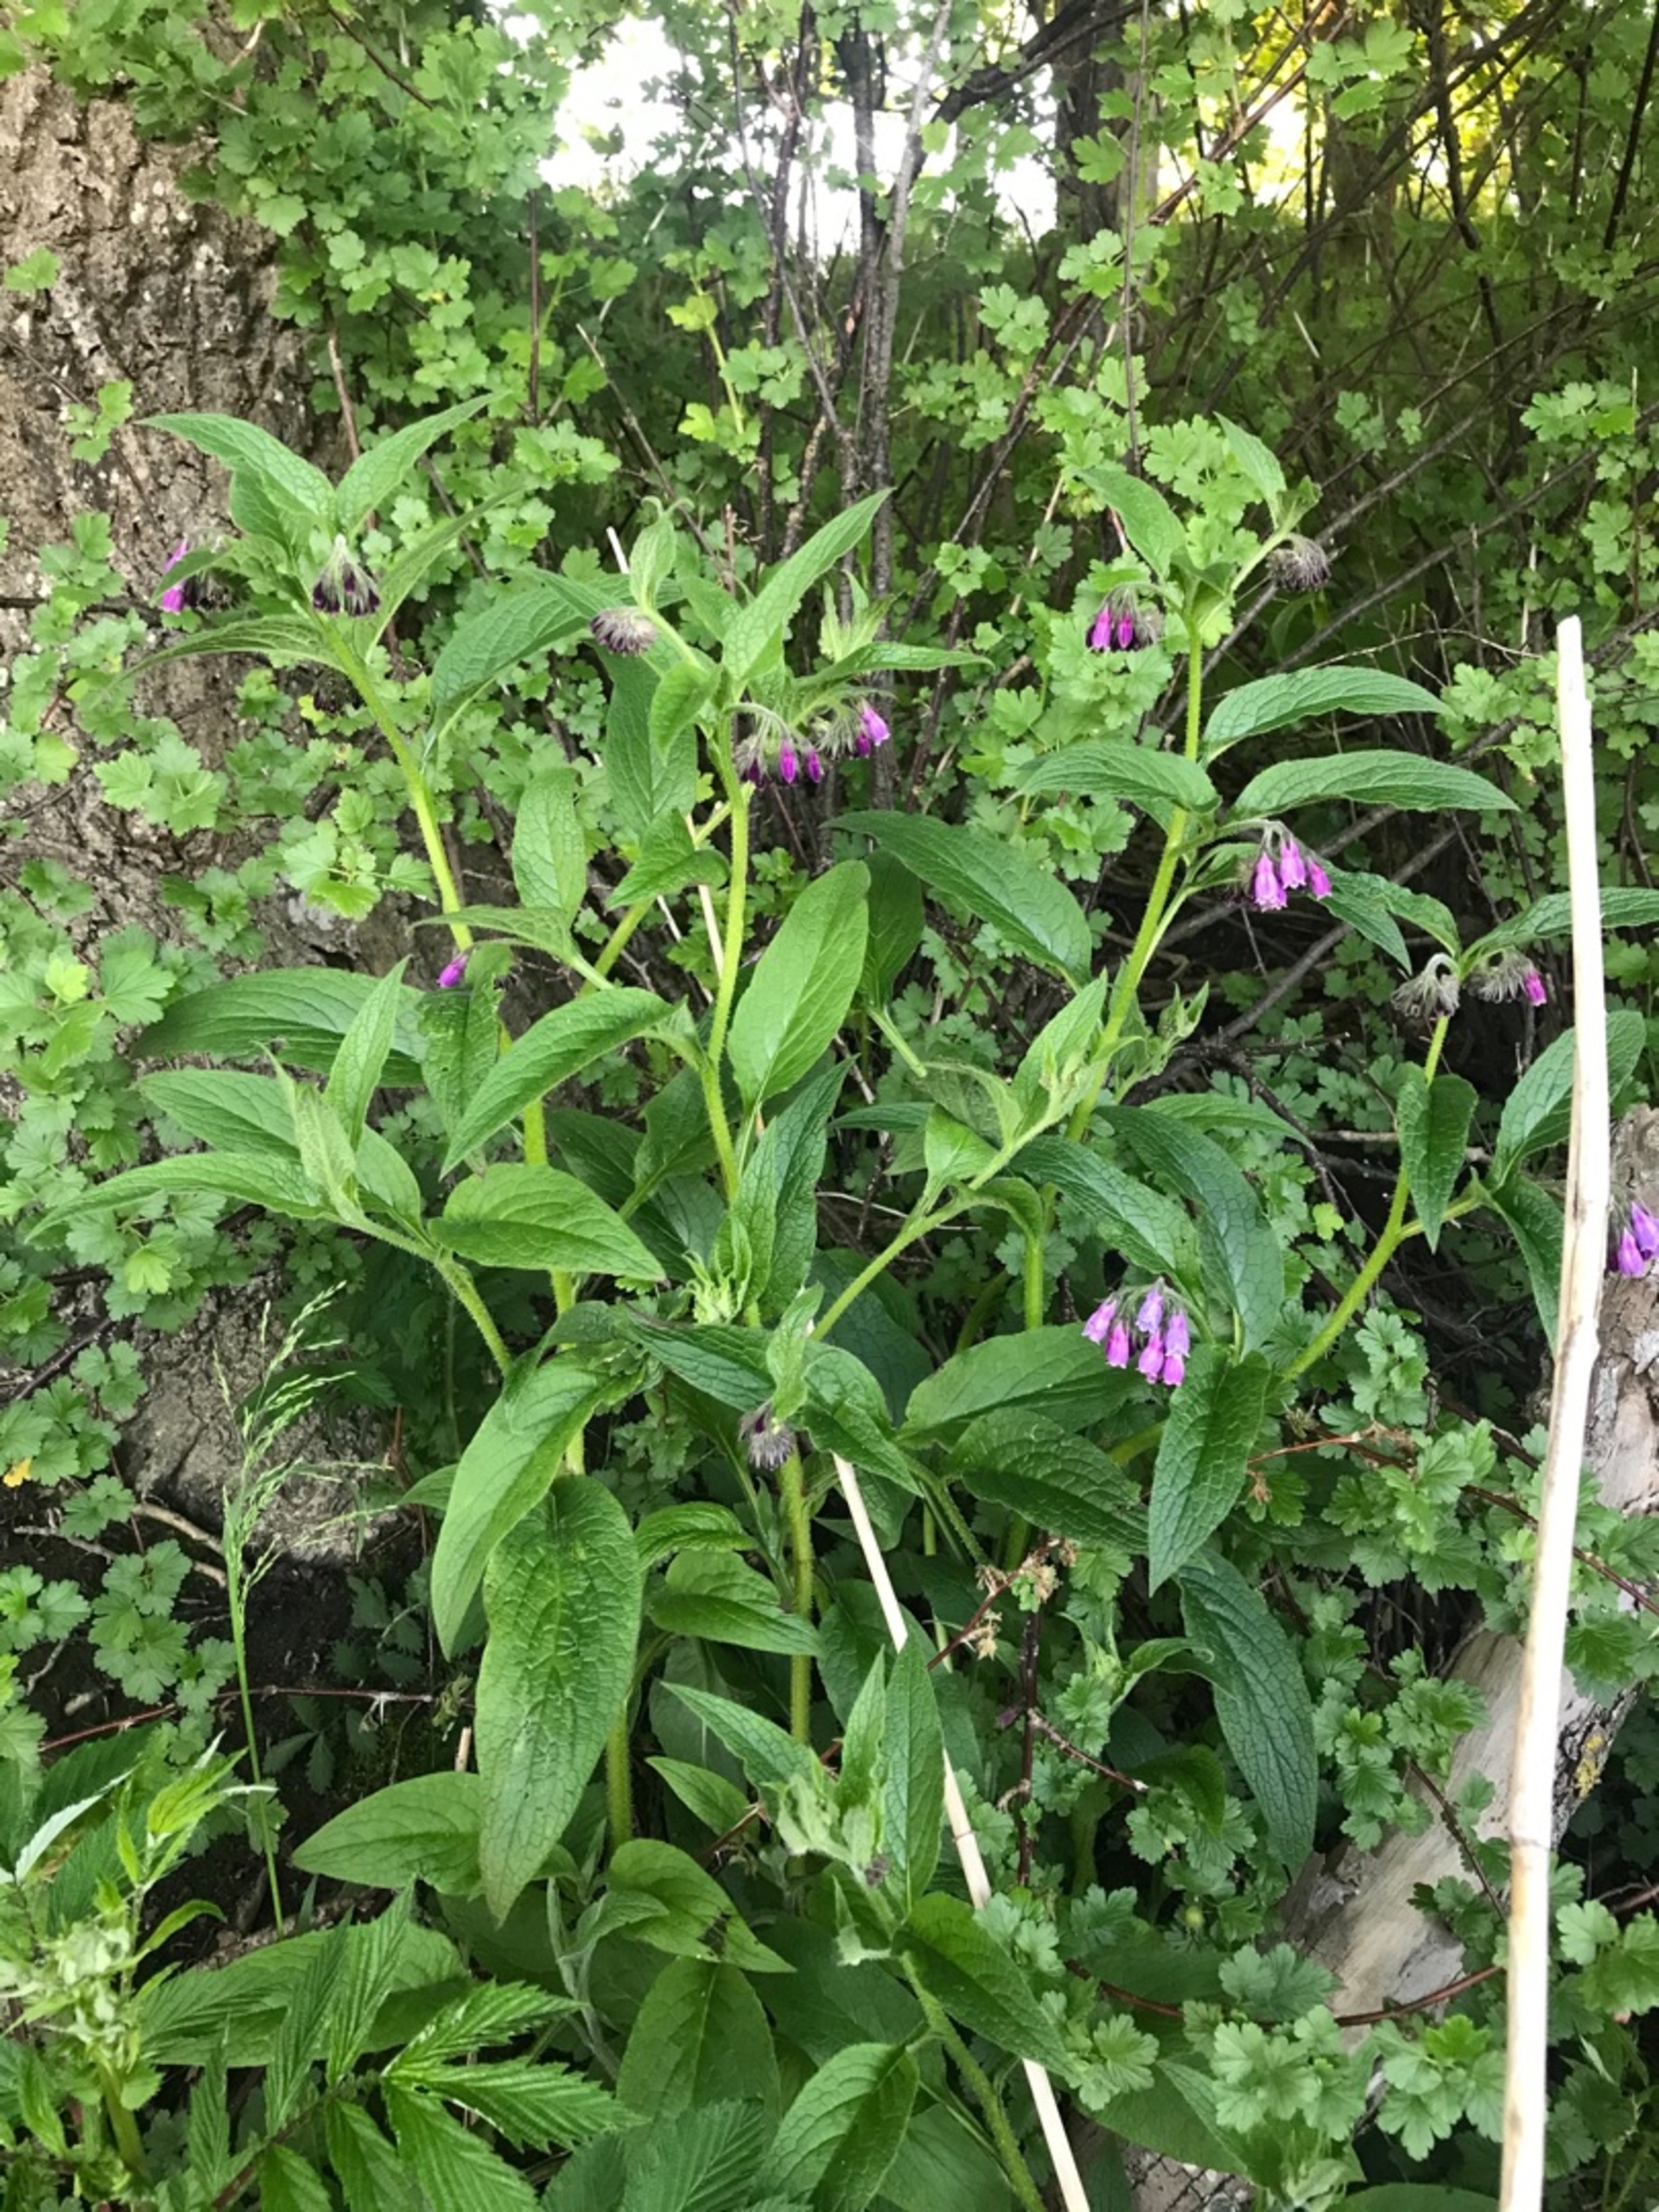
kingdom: Plantae
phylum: Tracheophyta
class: Magnoliopsida
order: Boraginales
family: Boraginaceae
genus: Symphytum
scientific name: Symphytum uplandicum
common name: Foder-kulsukker
